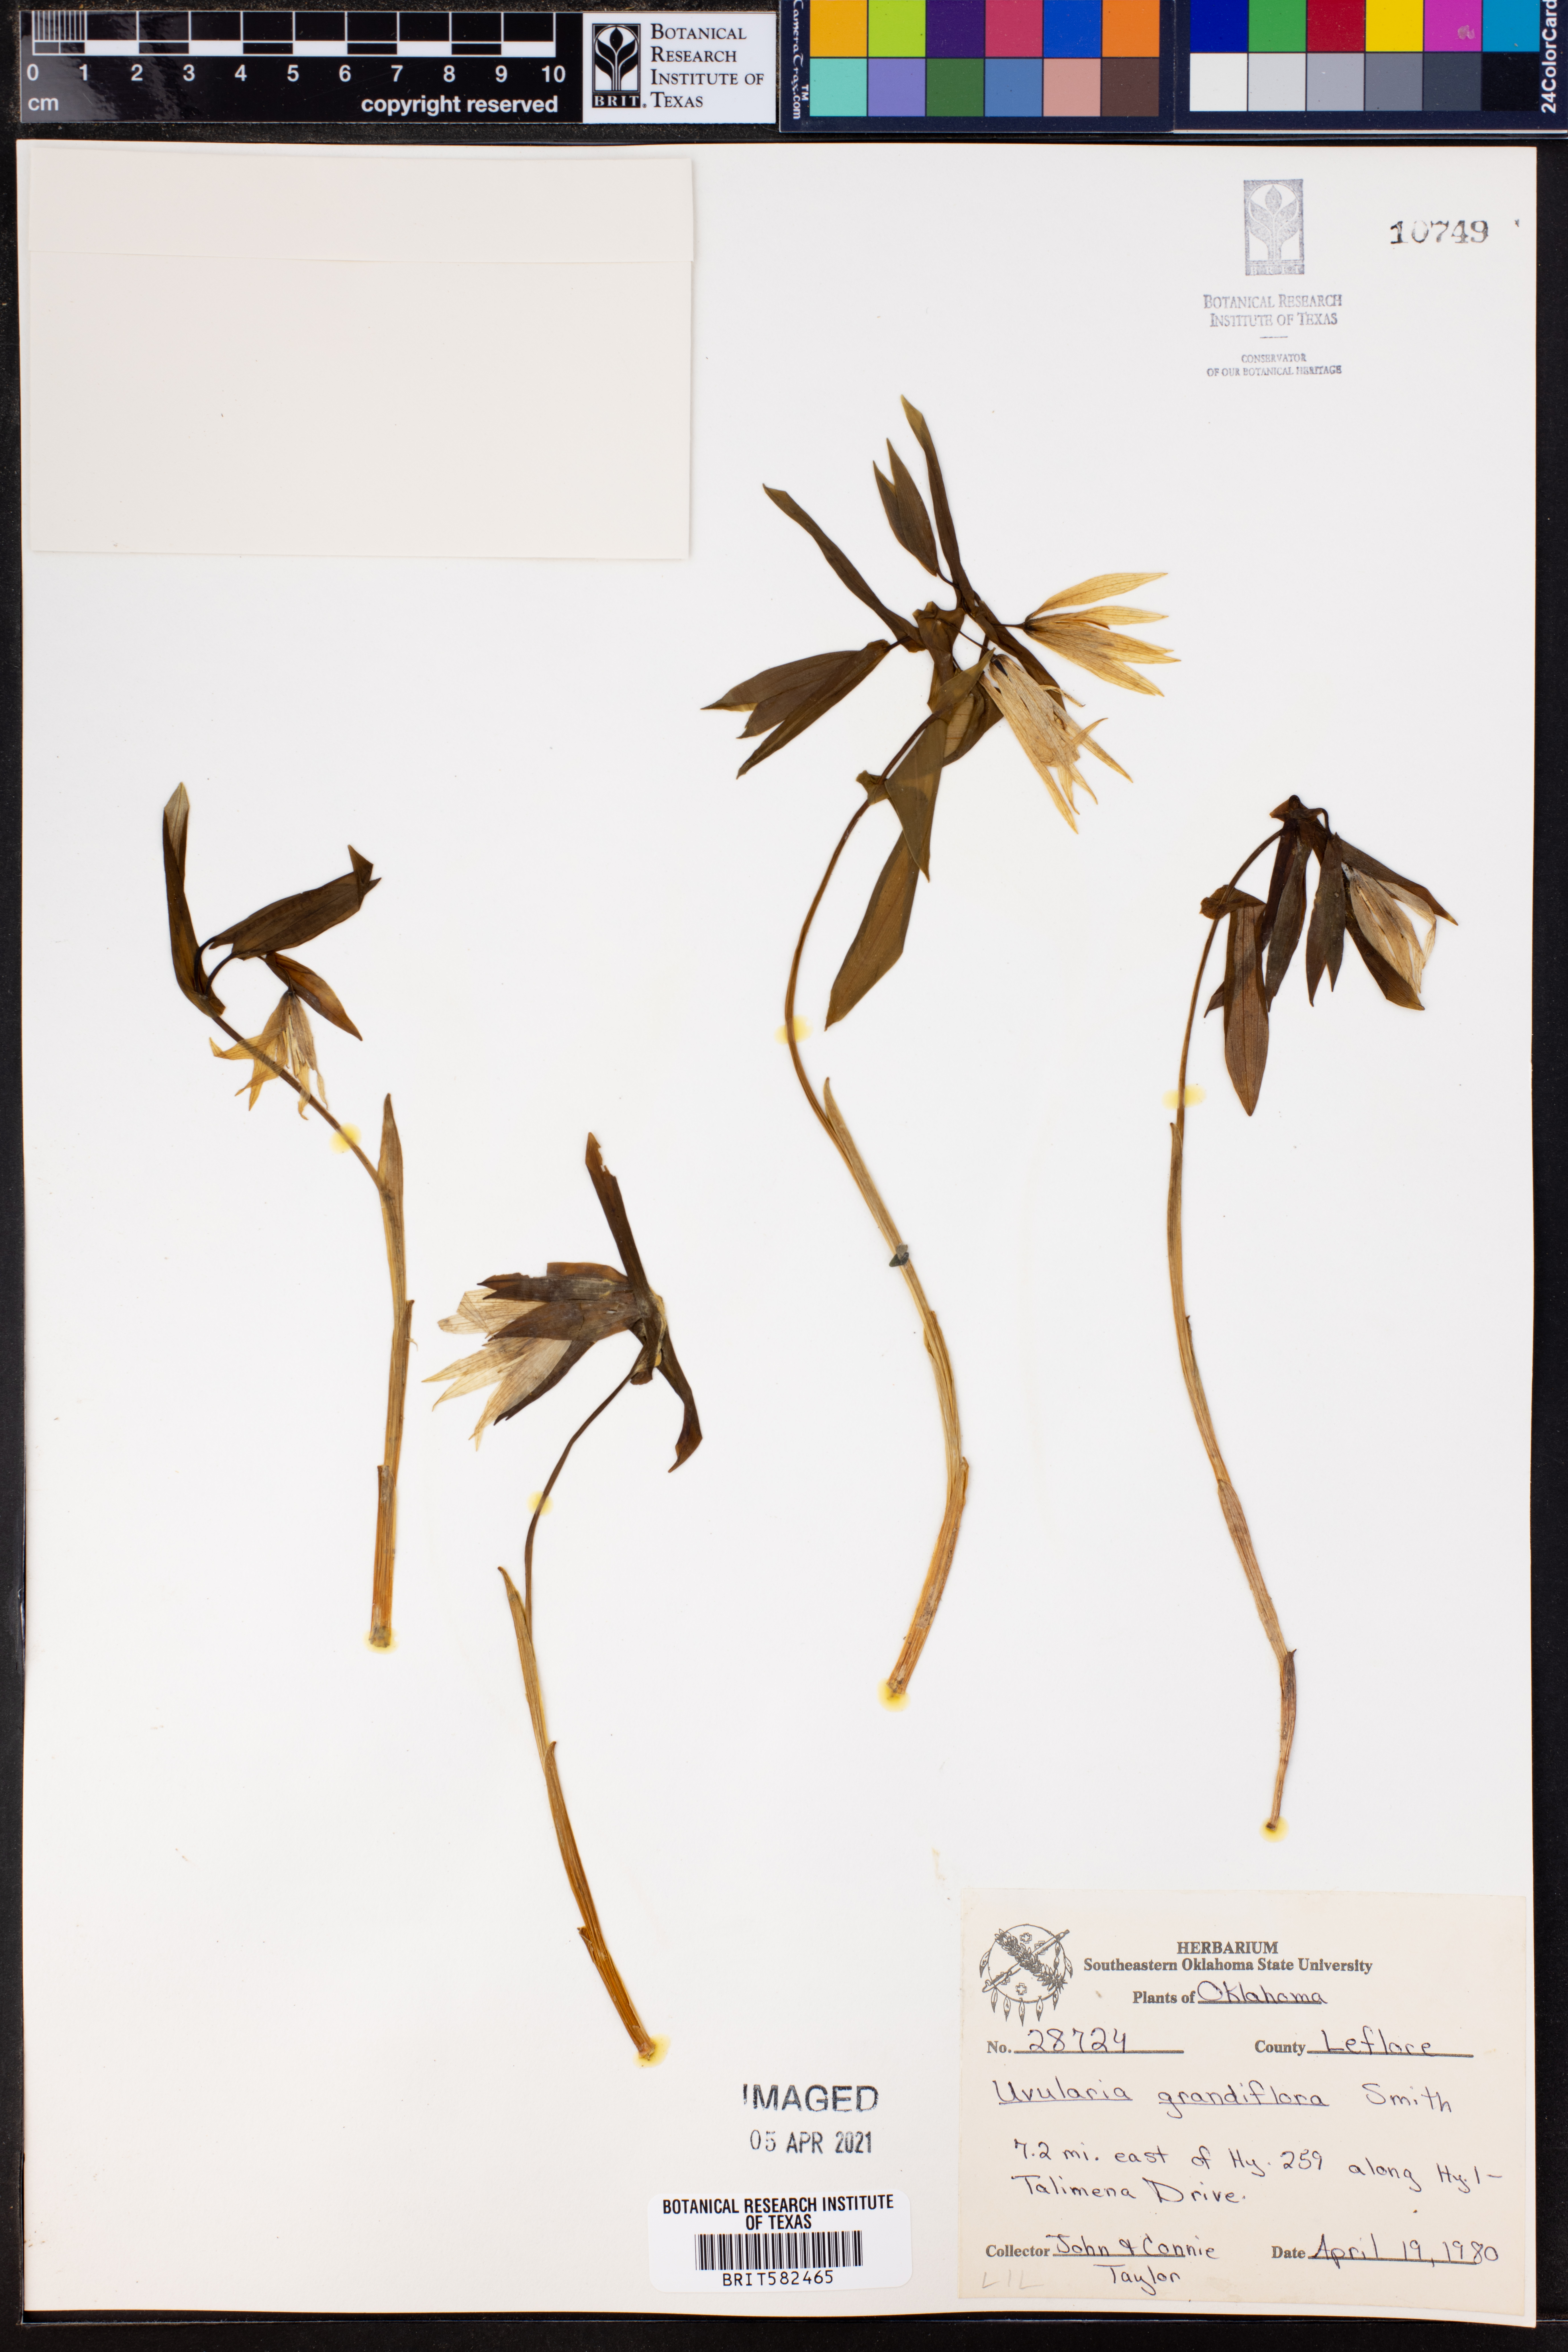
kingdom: Plantae
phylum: Tracheophyta
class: Liliopsida
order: Liliales
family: Colchicaceae
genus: Uvularia
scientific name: Uvularia grandiflora
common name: Bellwort
